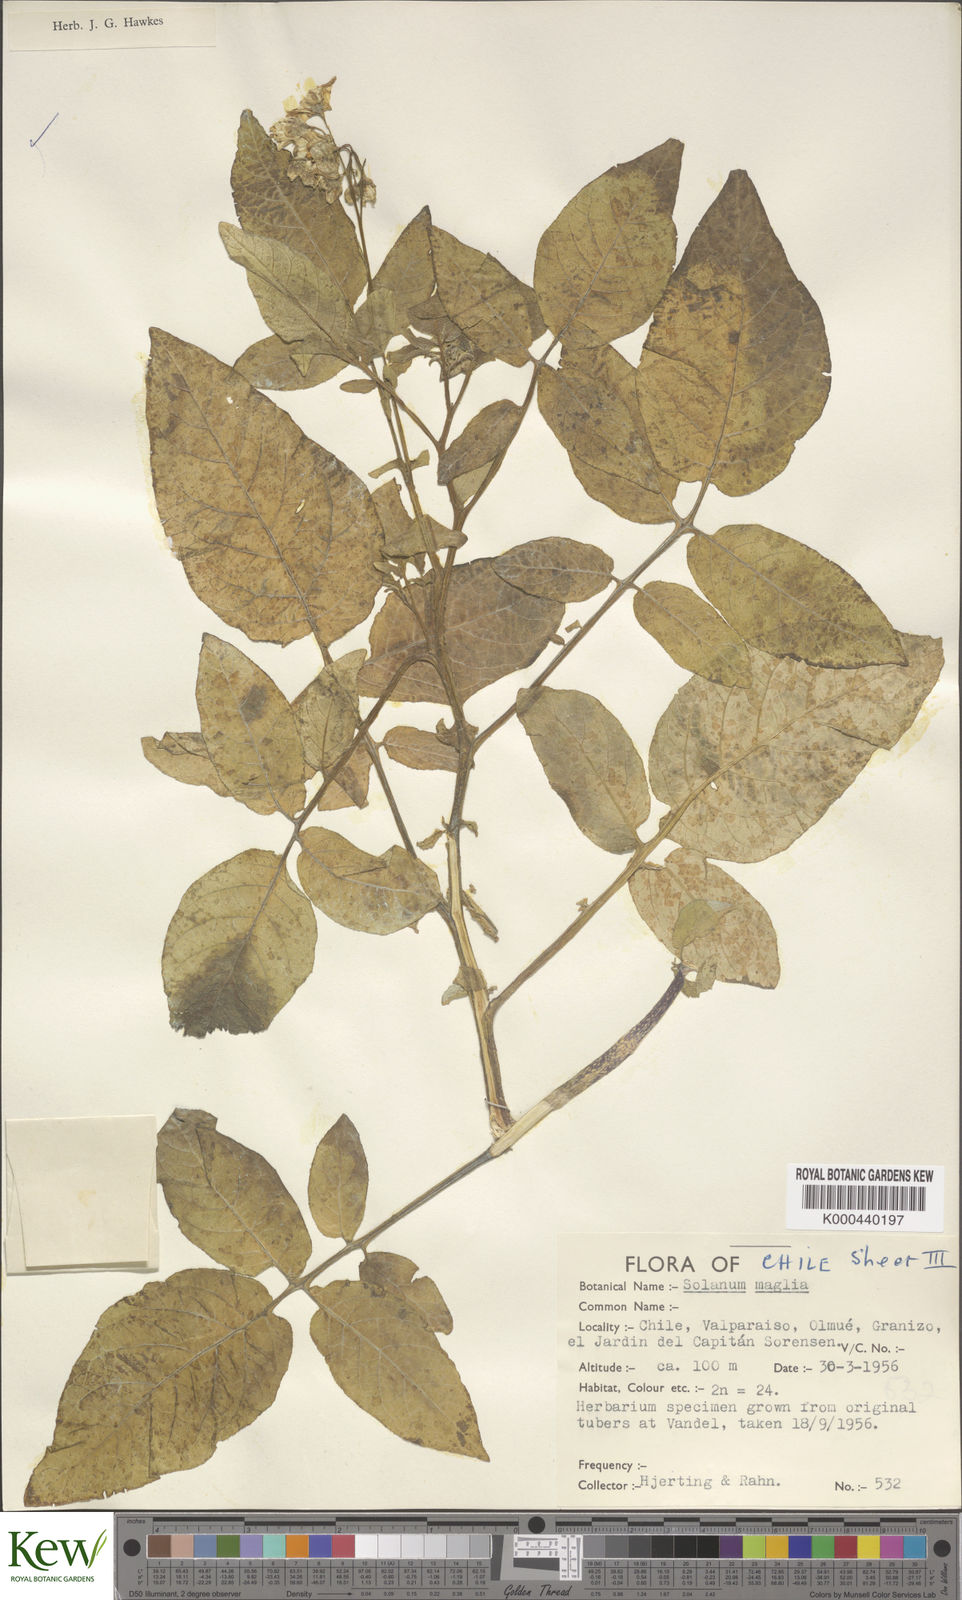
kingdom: Plantae
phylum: Tracheophyta
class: Magnoliopsida
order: Solanales
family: Solanaceae
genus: Solanum
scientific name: Solanum maglia
